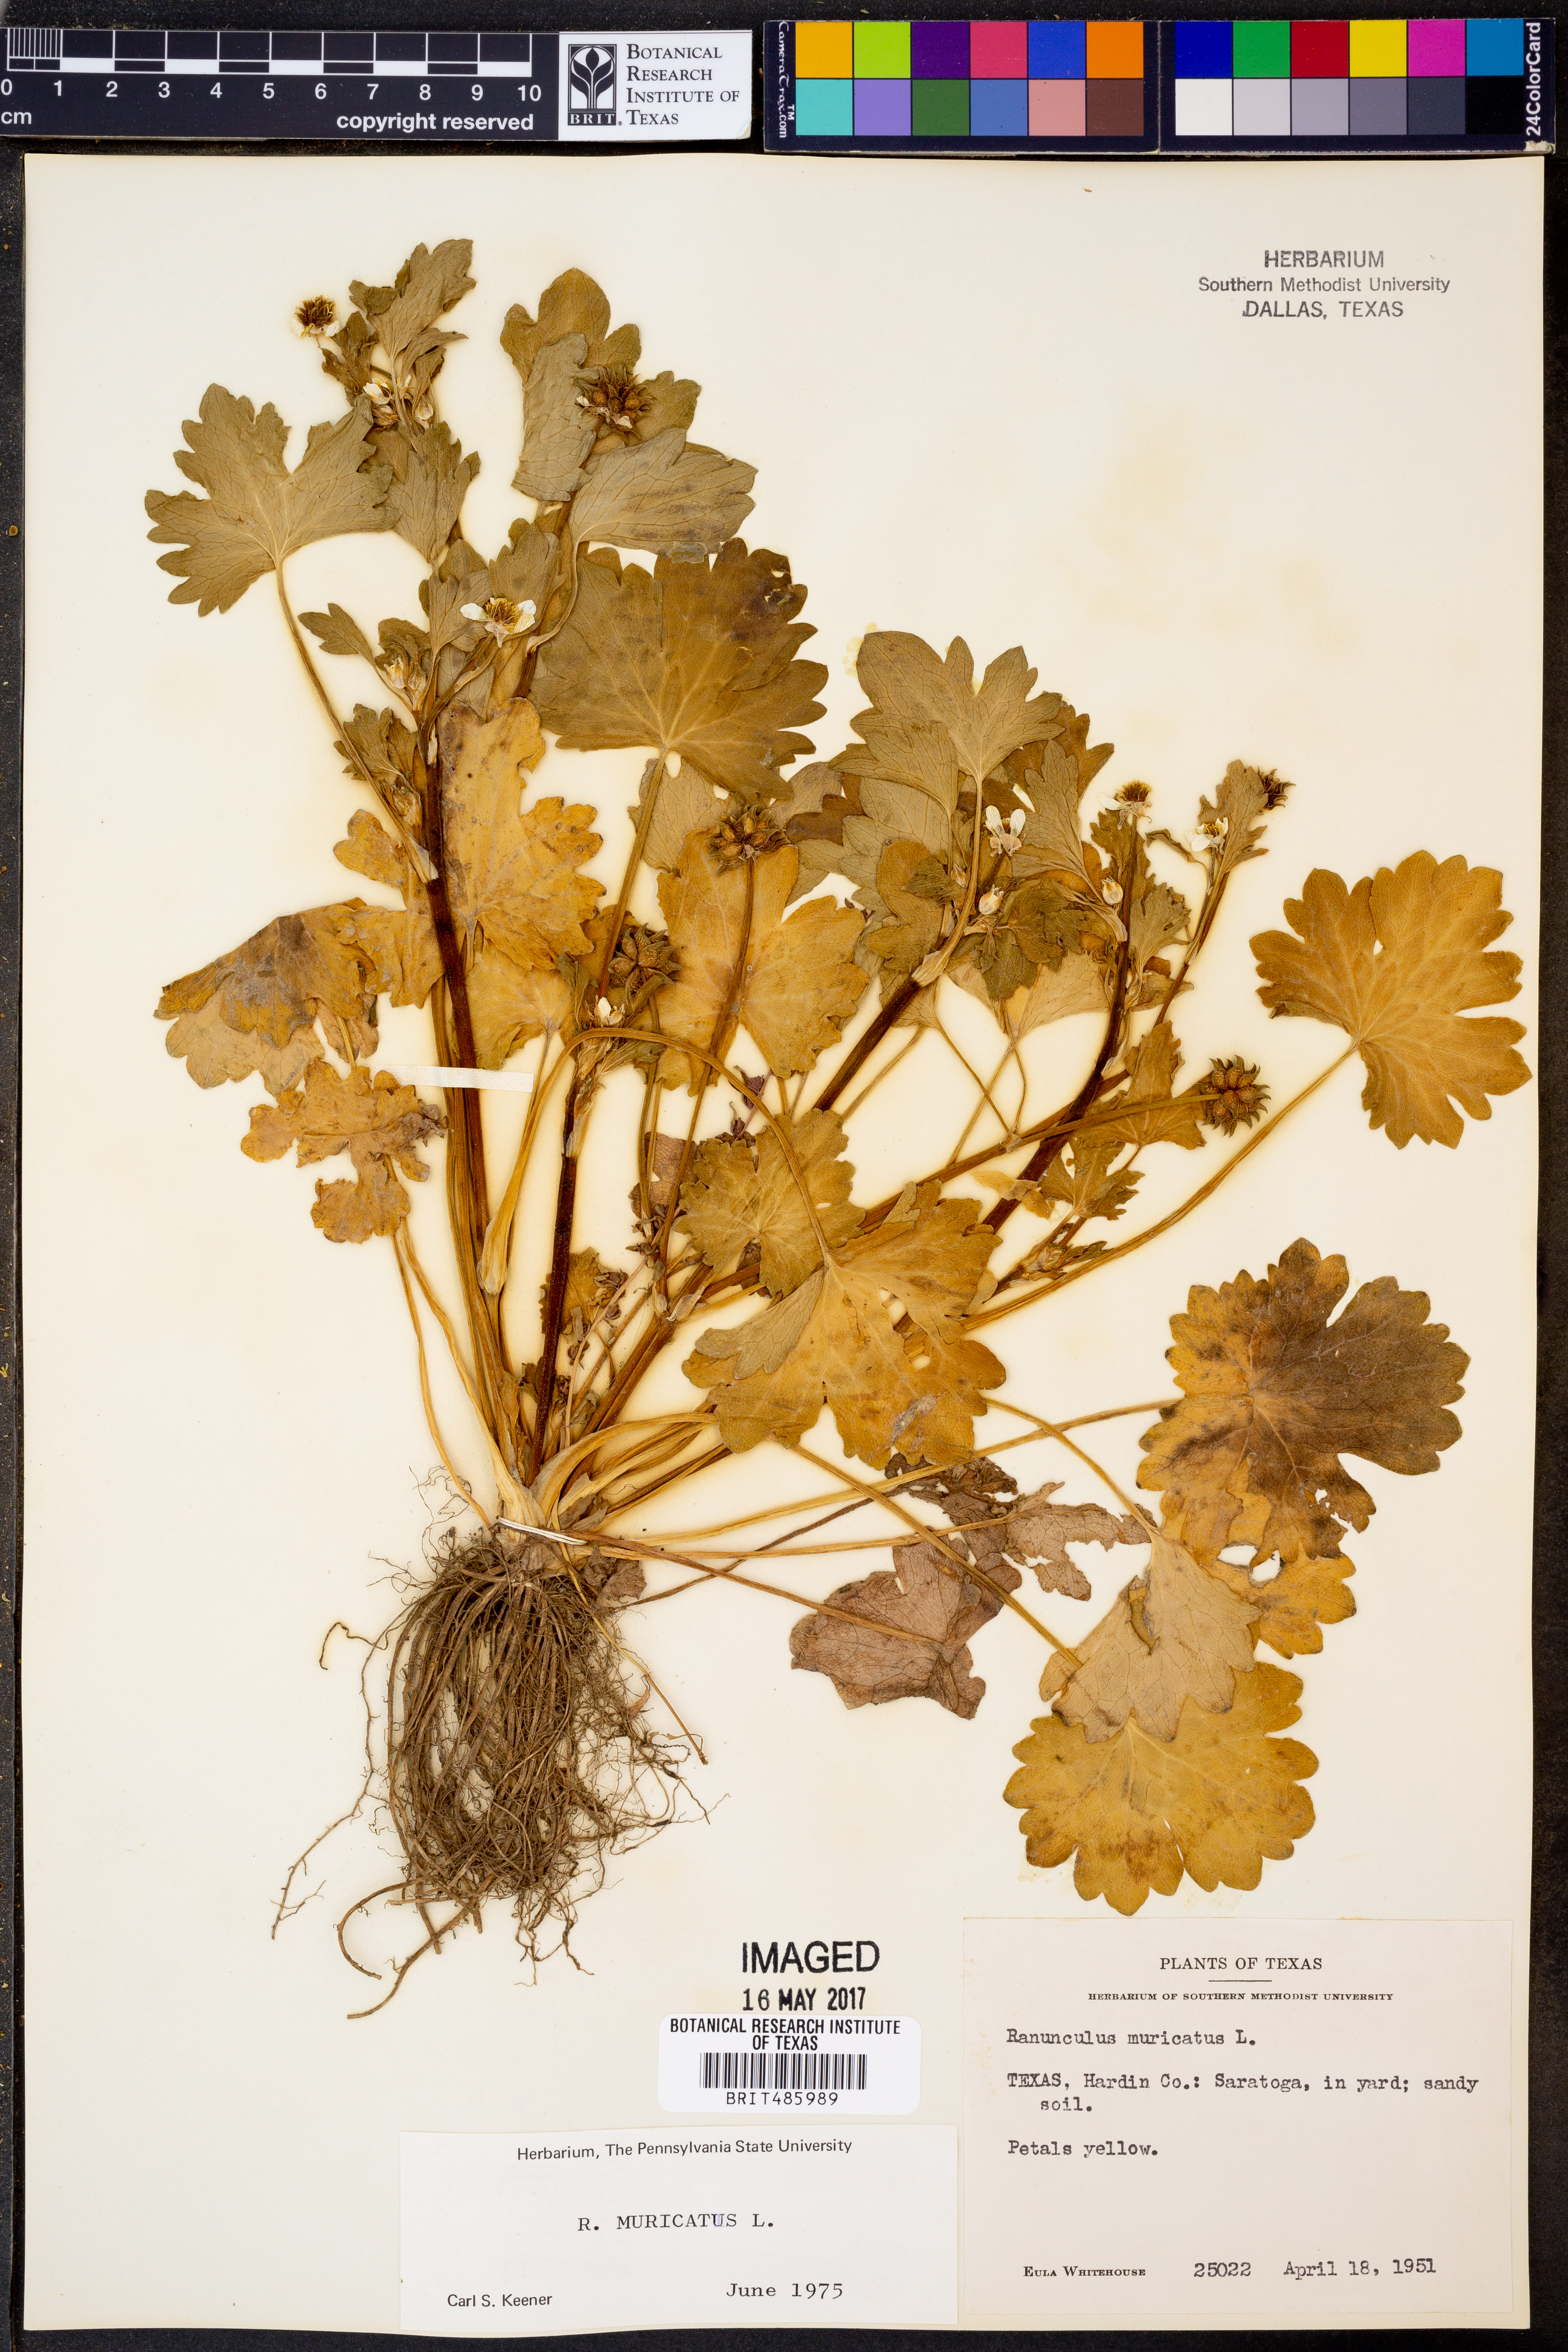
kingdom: Plantae
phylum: Tracheophyta
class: Magnoliopsida
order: Ranunculales
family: Ranunculaceae
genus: Ranunculus
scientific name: Ranunculus muricatus
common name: Rough-fruited buttercup
